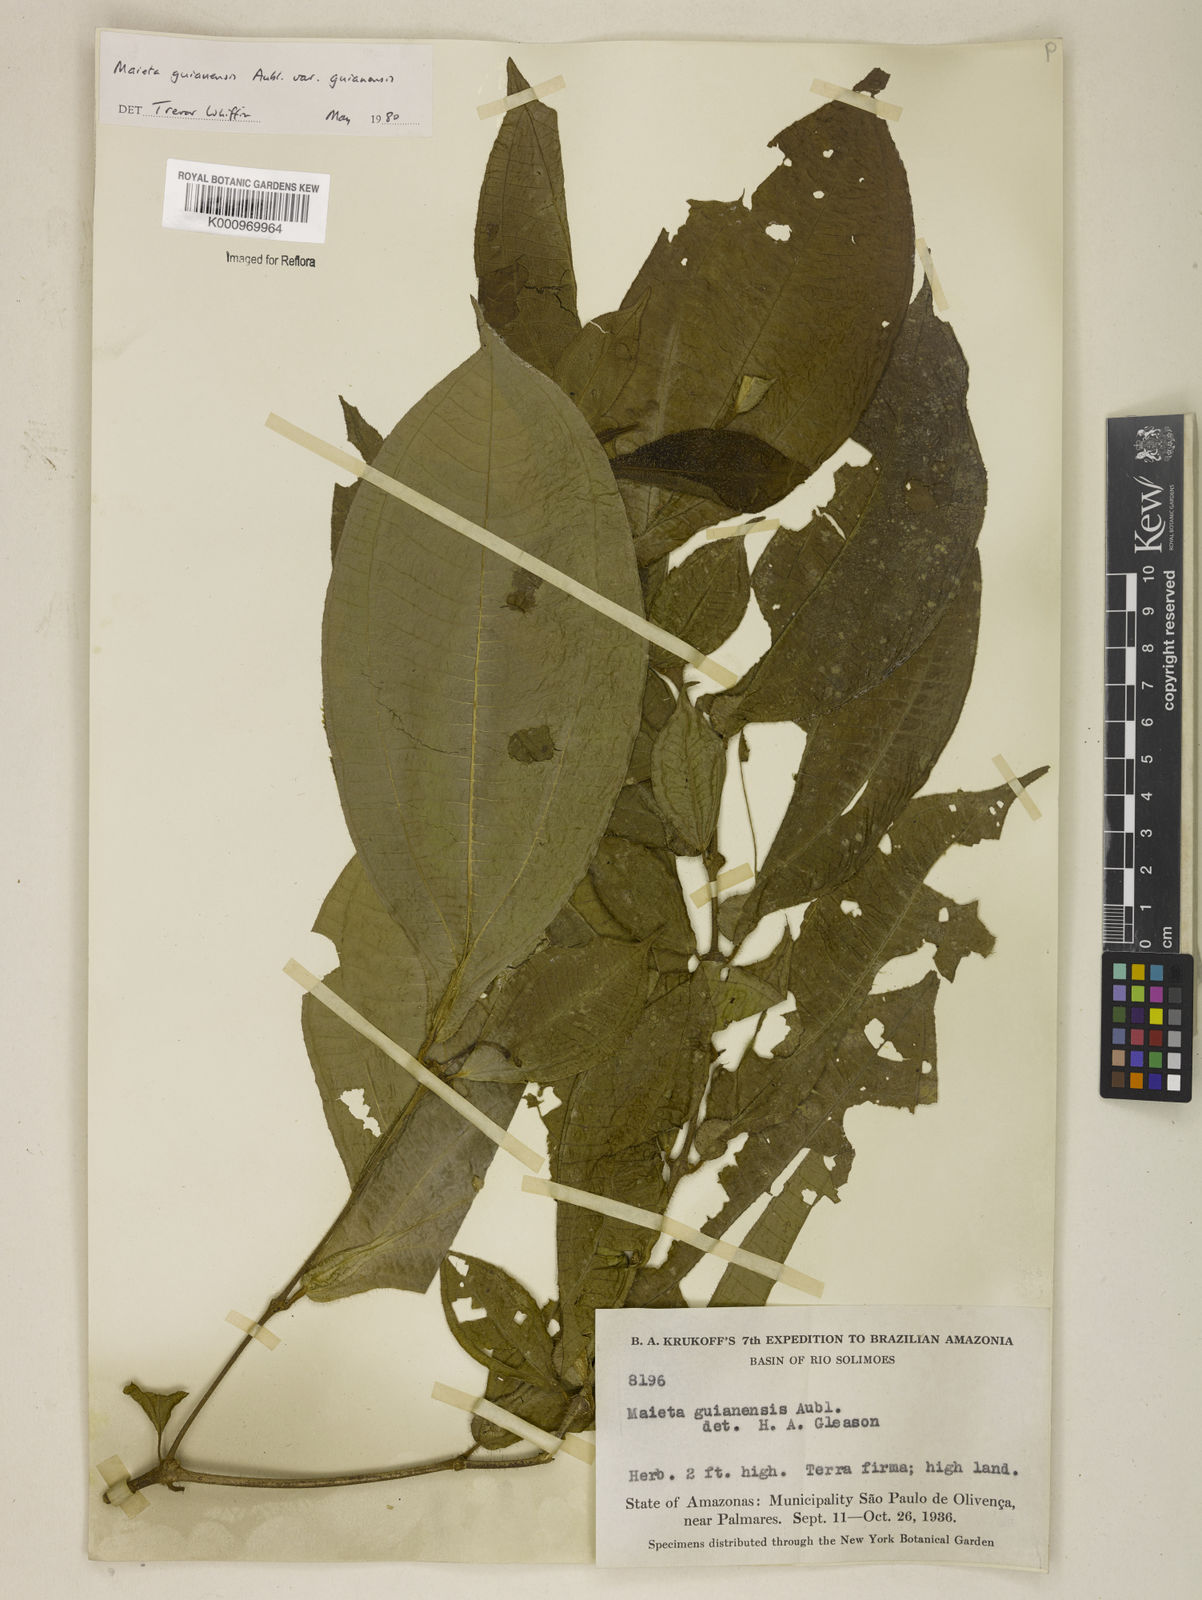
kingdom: Plantae
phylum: Tracheophyta
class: Magnoliopsida
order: Myrtales
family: Melastomataceae
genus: Miconia
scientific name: Miconia mayeta
